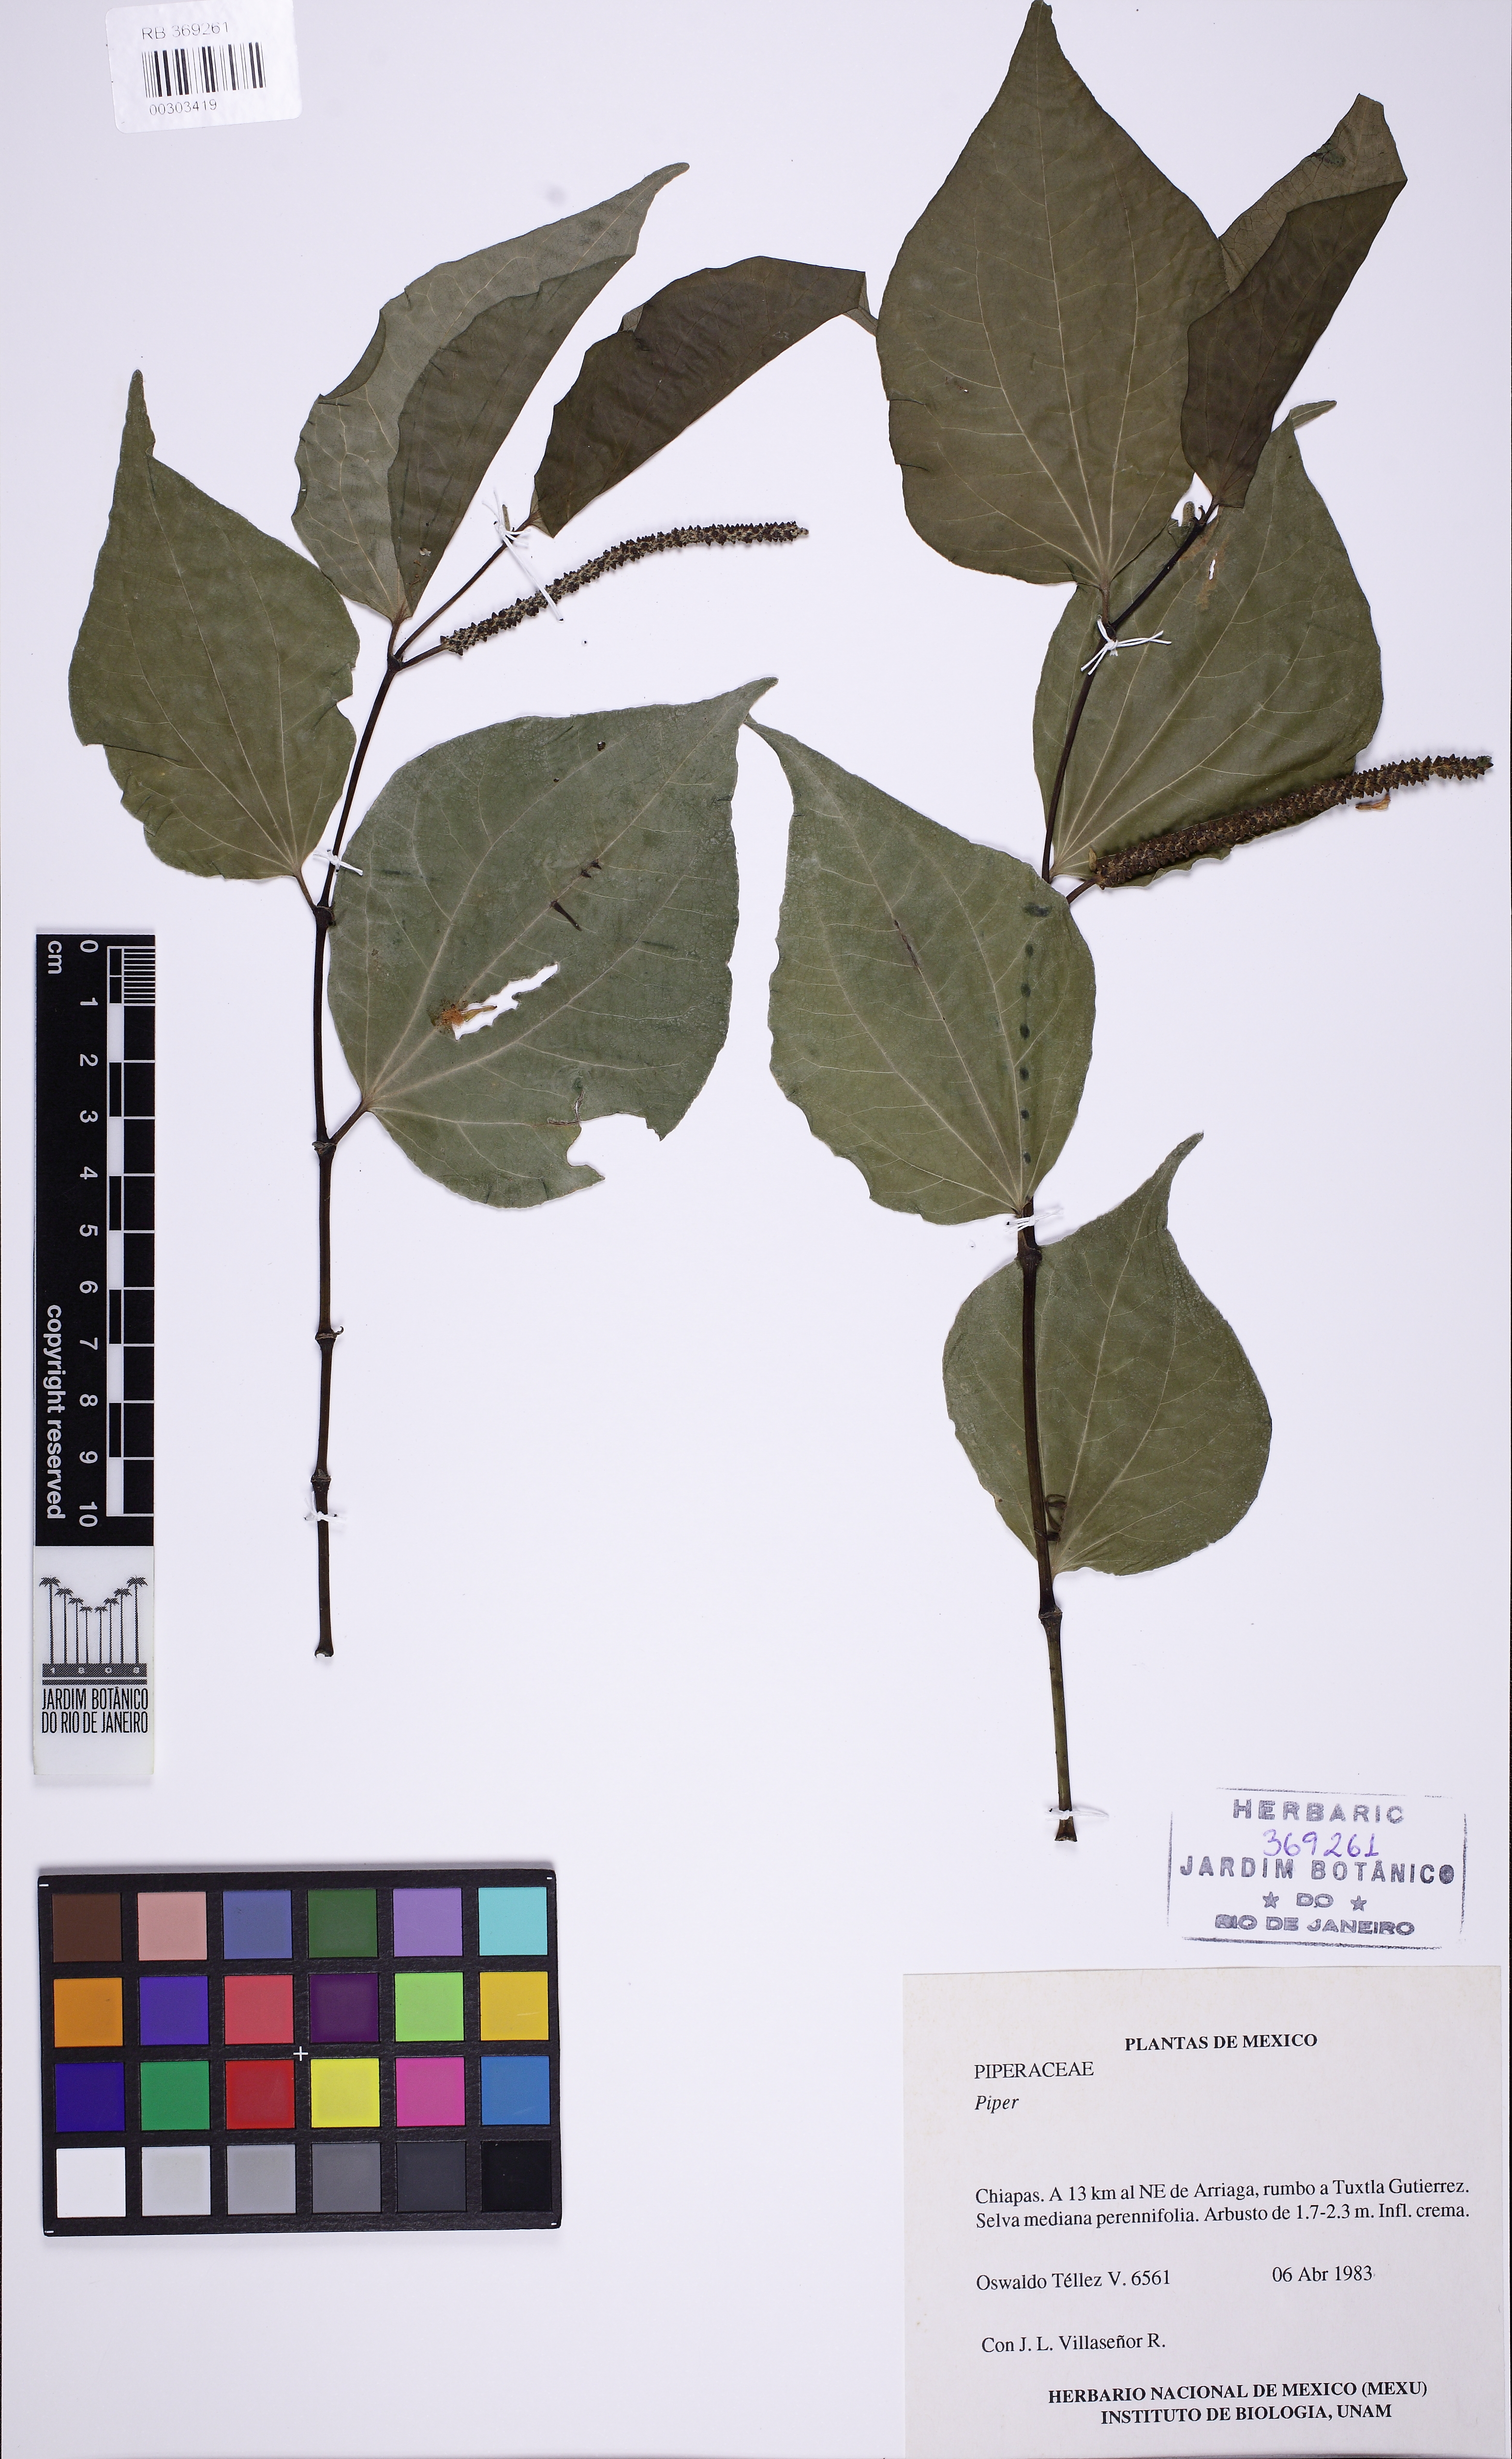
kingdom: Plantae
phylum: Tracheophyta
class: Magnoliopsida
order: Piperales
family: Piperaceae
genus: Peperomia
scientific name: Peperomia
